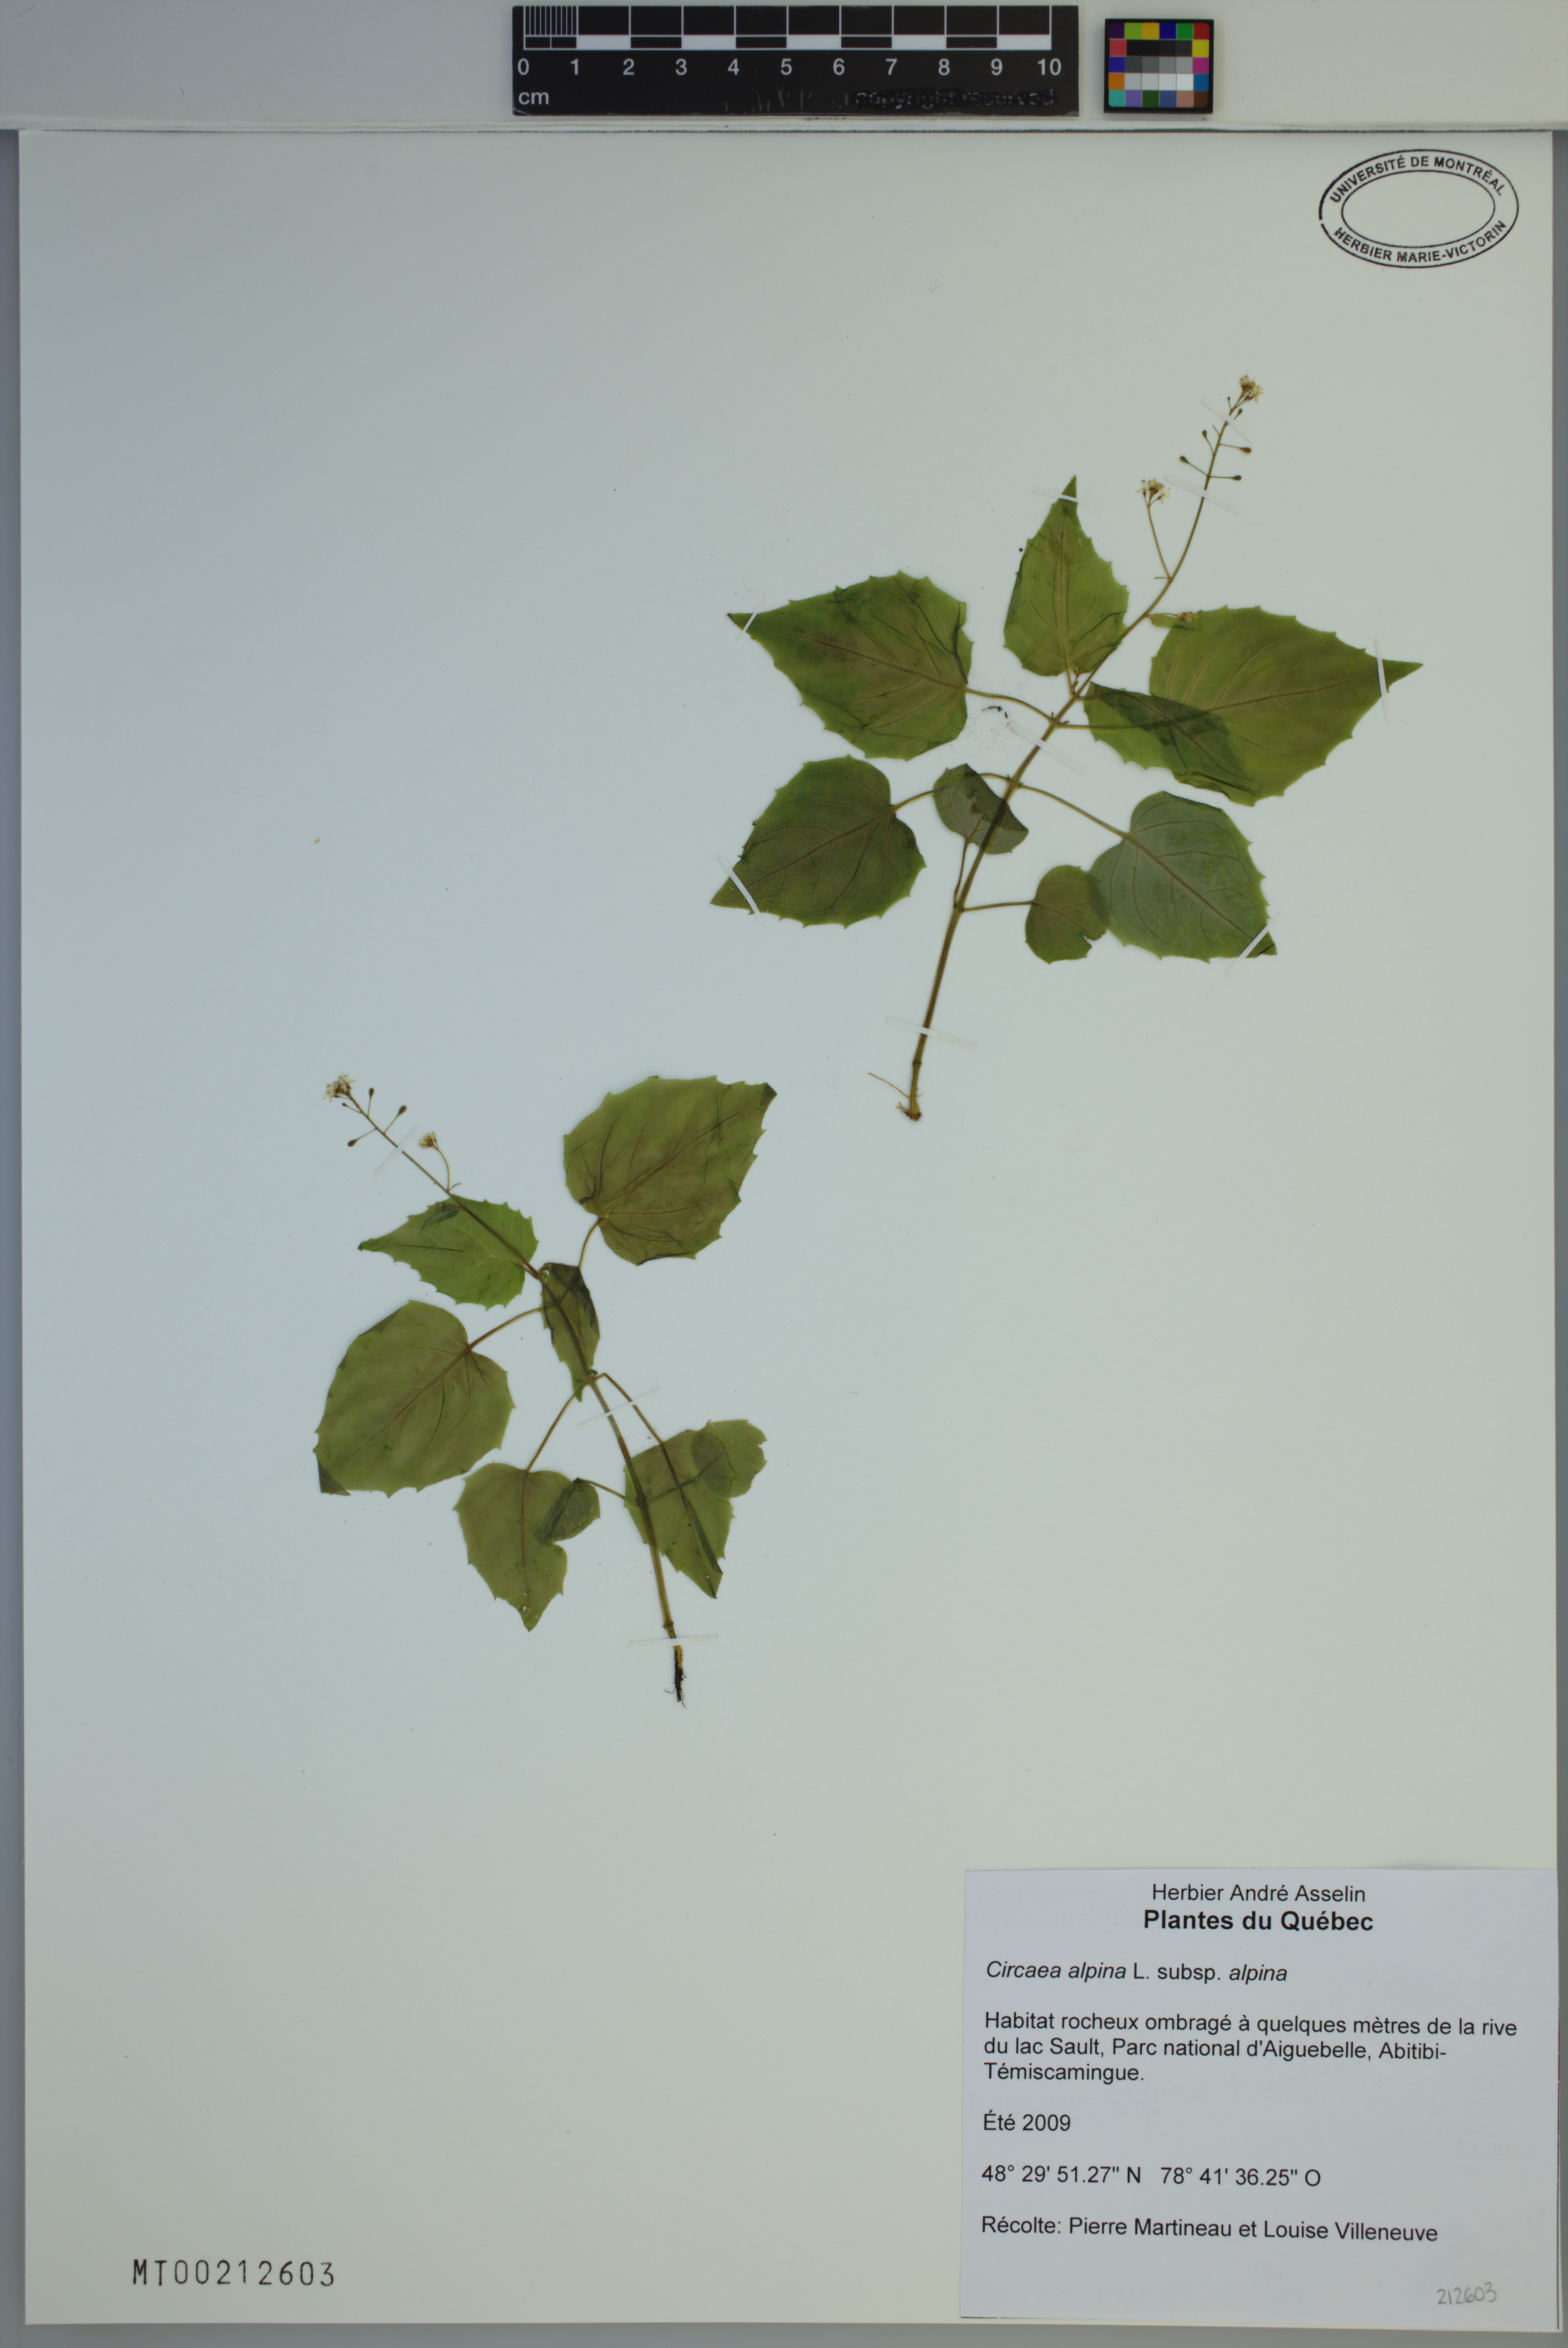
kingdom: Plantae
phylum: Tracheophyta
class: Magnoliopsida
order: Myrtales
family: Onagraceae
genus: Circaea
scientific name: Circaea alpina
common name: Alpine enchanter's-nightshade
